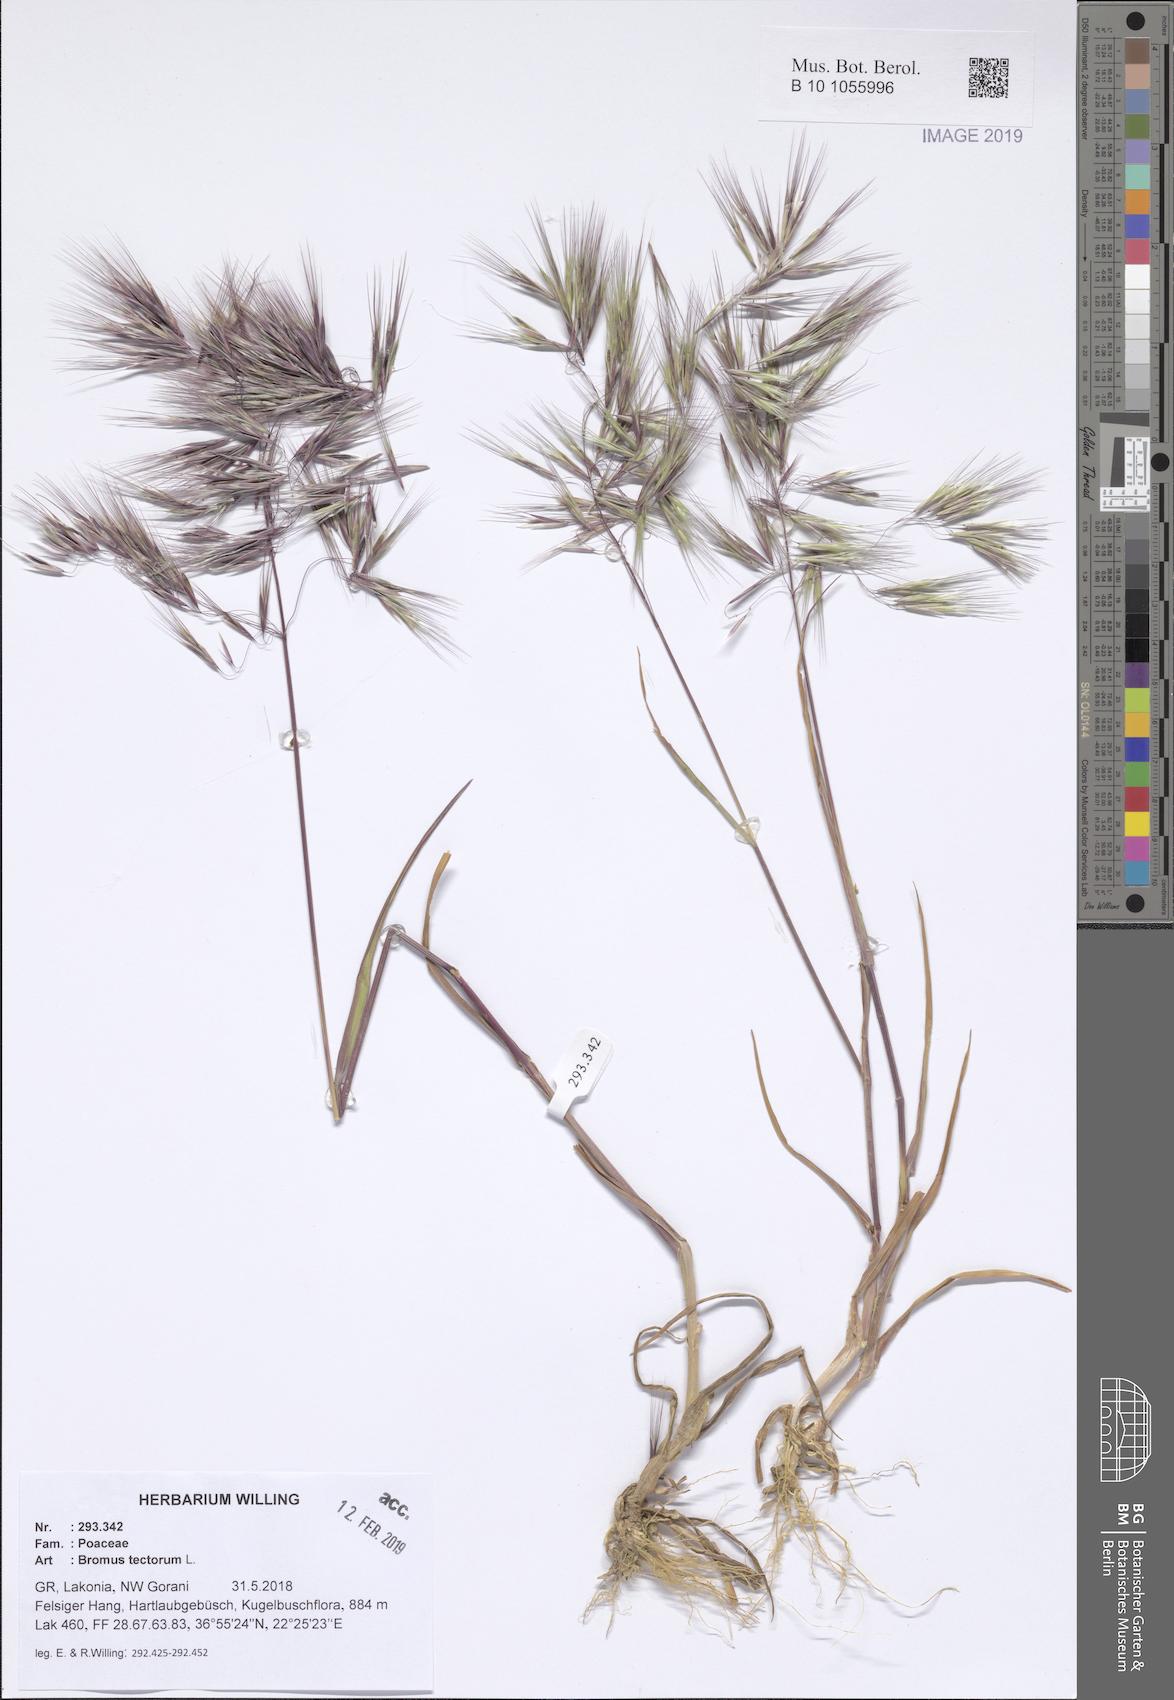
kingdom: Plantae
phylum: Tracheophyta
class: Liliopsida
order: Poales
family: Poaceae
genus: Bromus
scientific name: Bromus tectorum
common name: Cheatgrass
